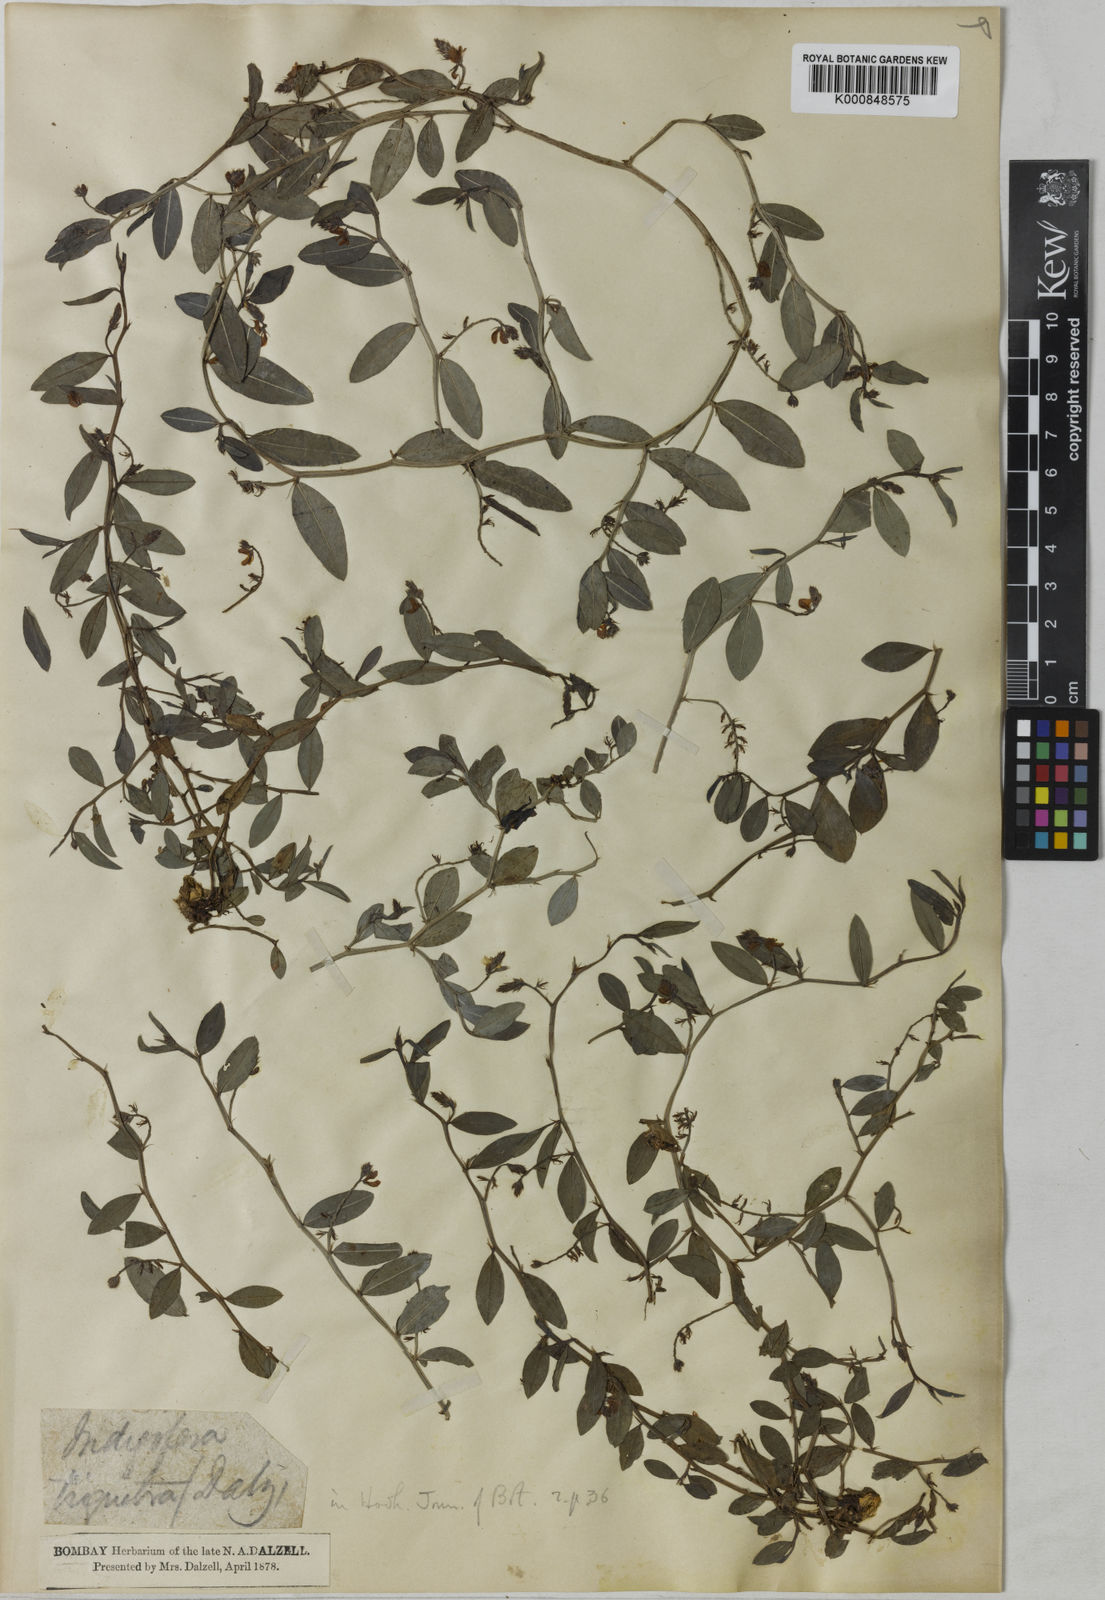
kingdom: Plantae
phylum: Tracheophyta
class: Magnoliopsida
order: Fabales
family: Fabaceae
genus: Indigofera
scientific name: Indigofera dalzelliana
